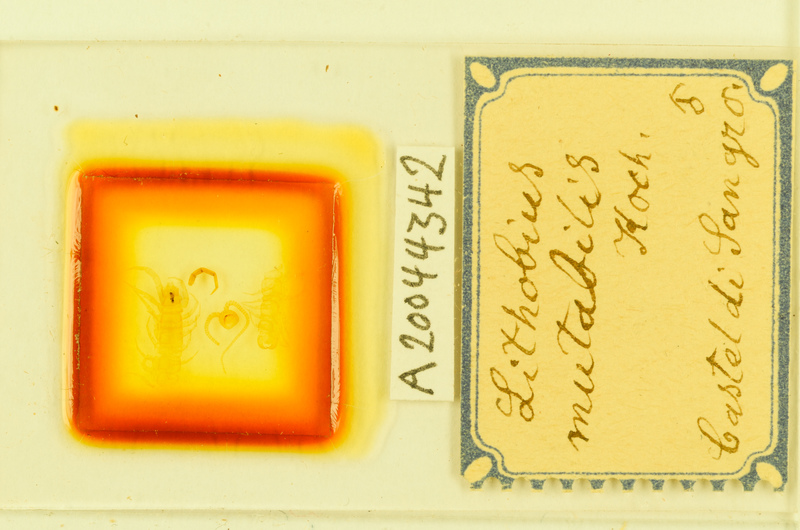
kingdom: Animalia
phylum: Arthropoda
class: Chilopoda
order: Lithobiomorpha
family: Lithobiidae
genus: Lithobius
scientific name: Lithobius mutabilis
